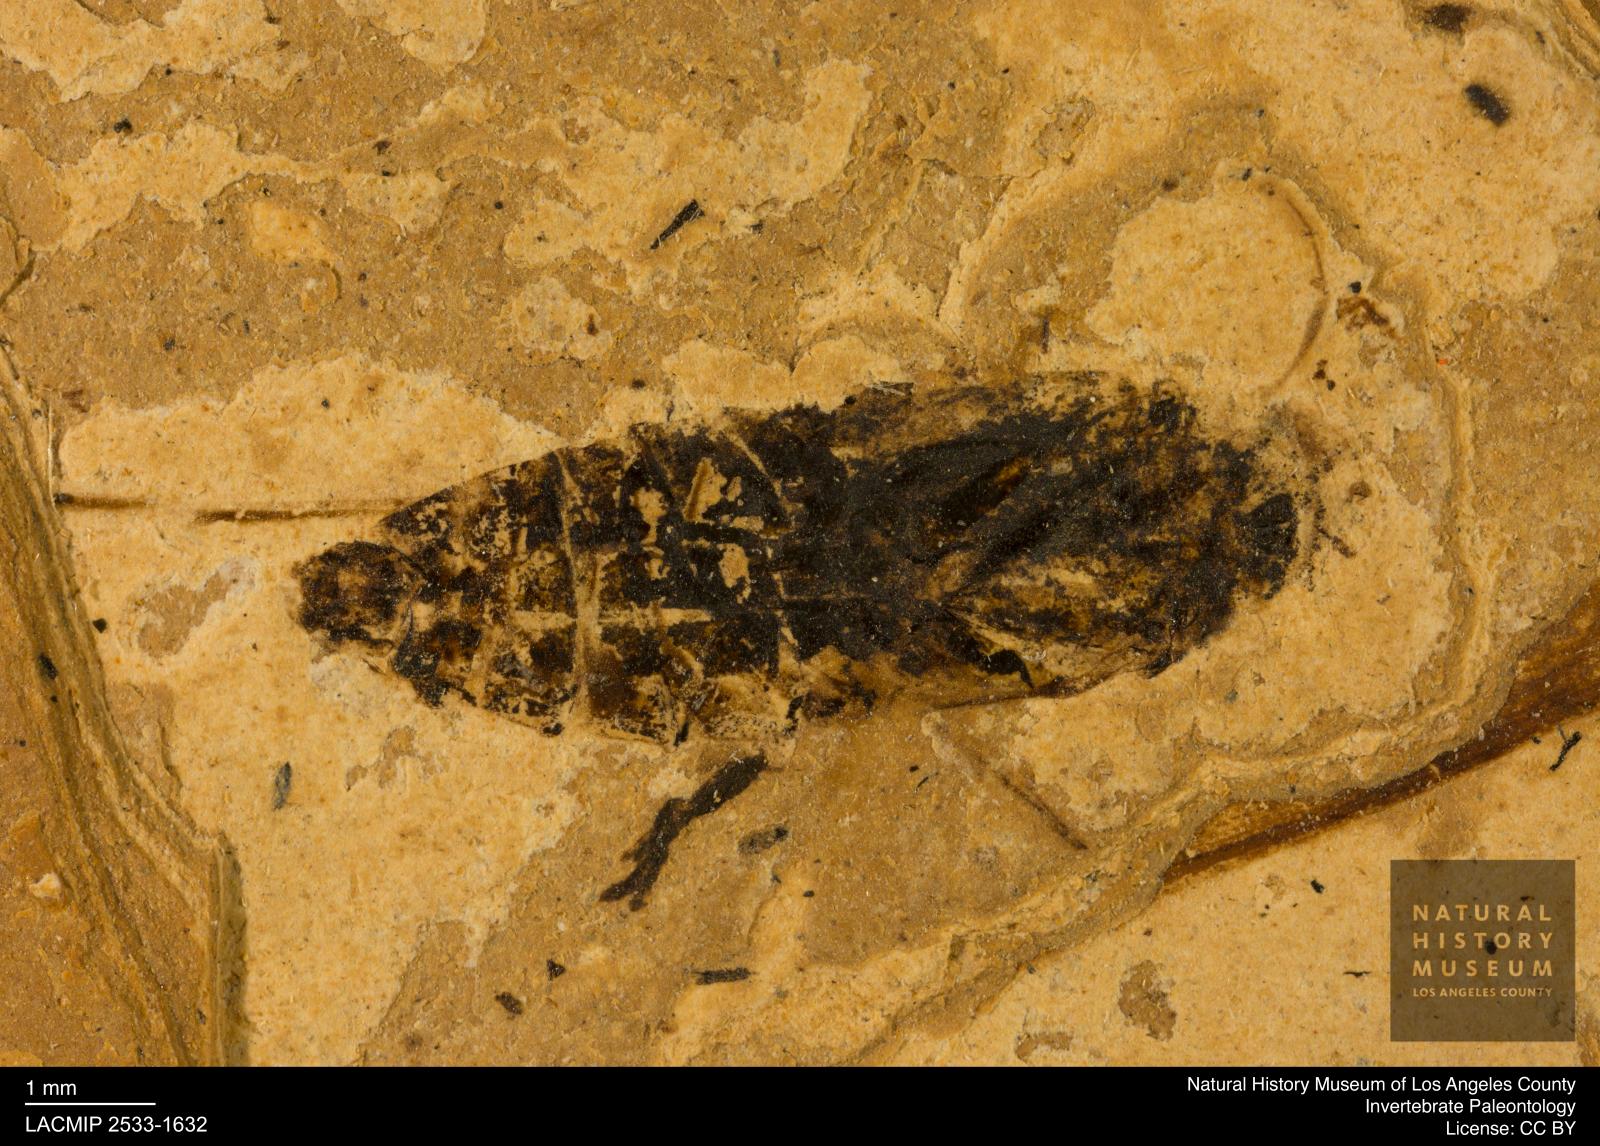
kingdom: Animalia
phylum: Arthropoda
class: Insecta
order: Hemiptera
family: Notonectidae
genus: Notonecta
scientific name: Notonecta
